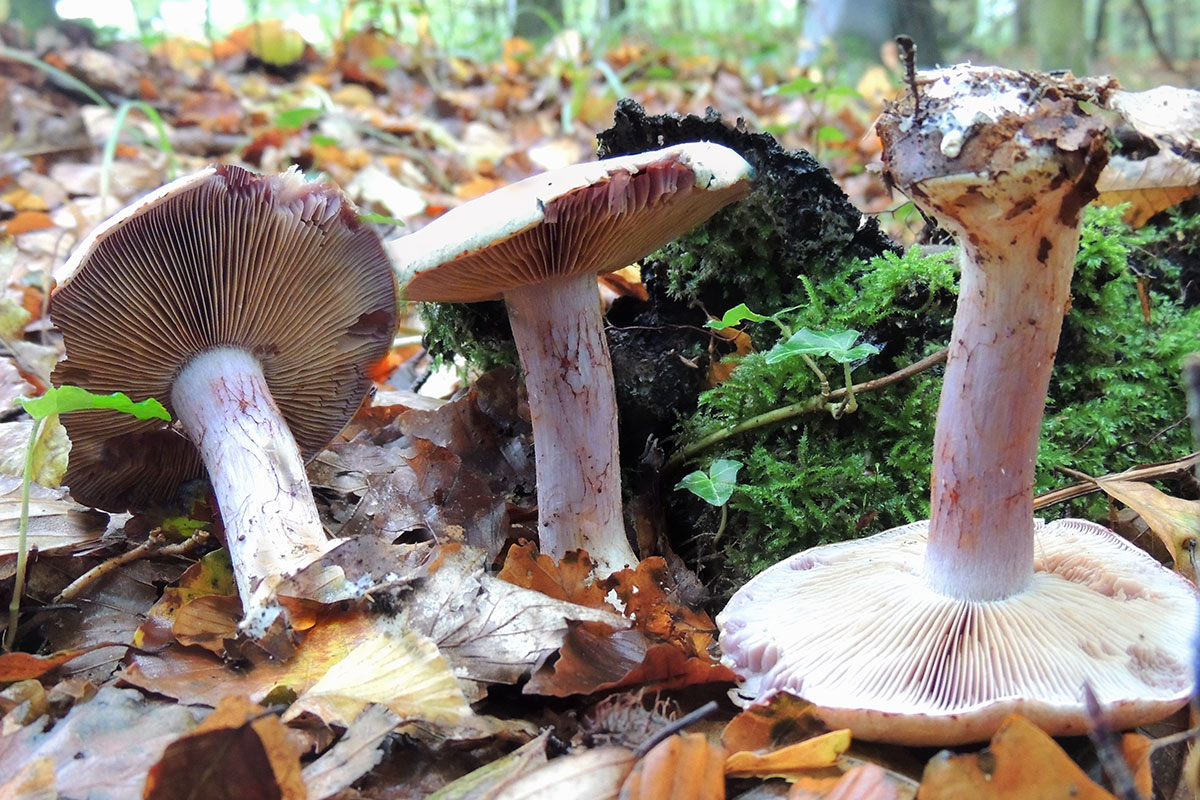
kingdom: Fungi
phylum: Basidiomycota
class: Agaricomycetes
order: Agaricales
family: Cortinariaceae
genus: Calonarius
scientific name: Calonarius platypus
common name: platfodet slørhat
